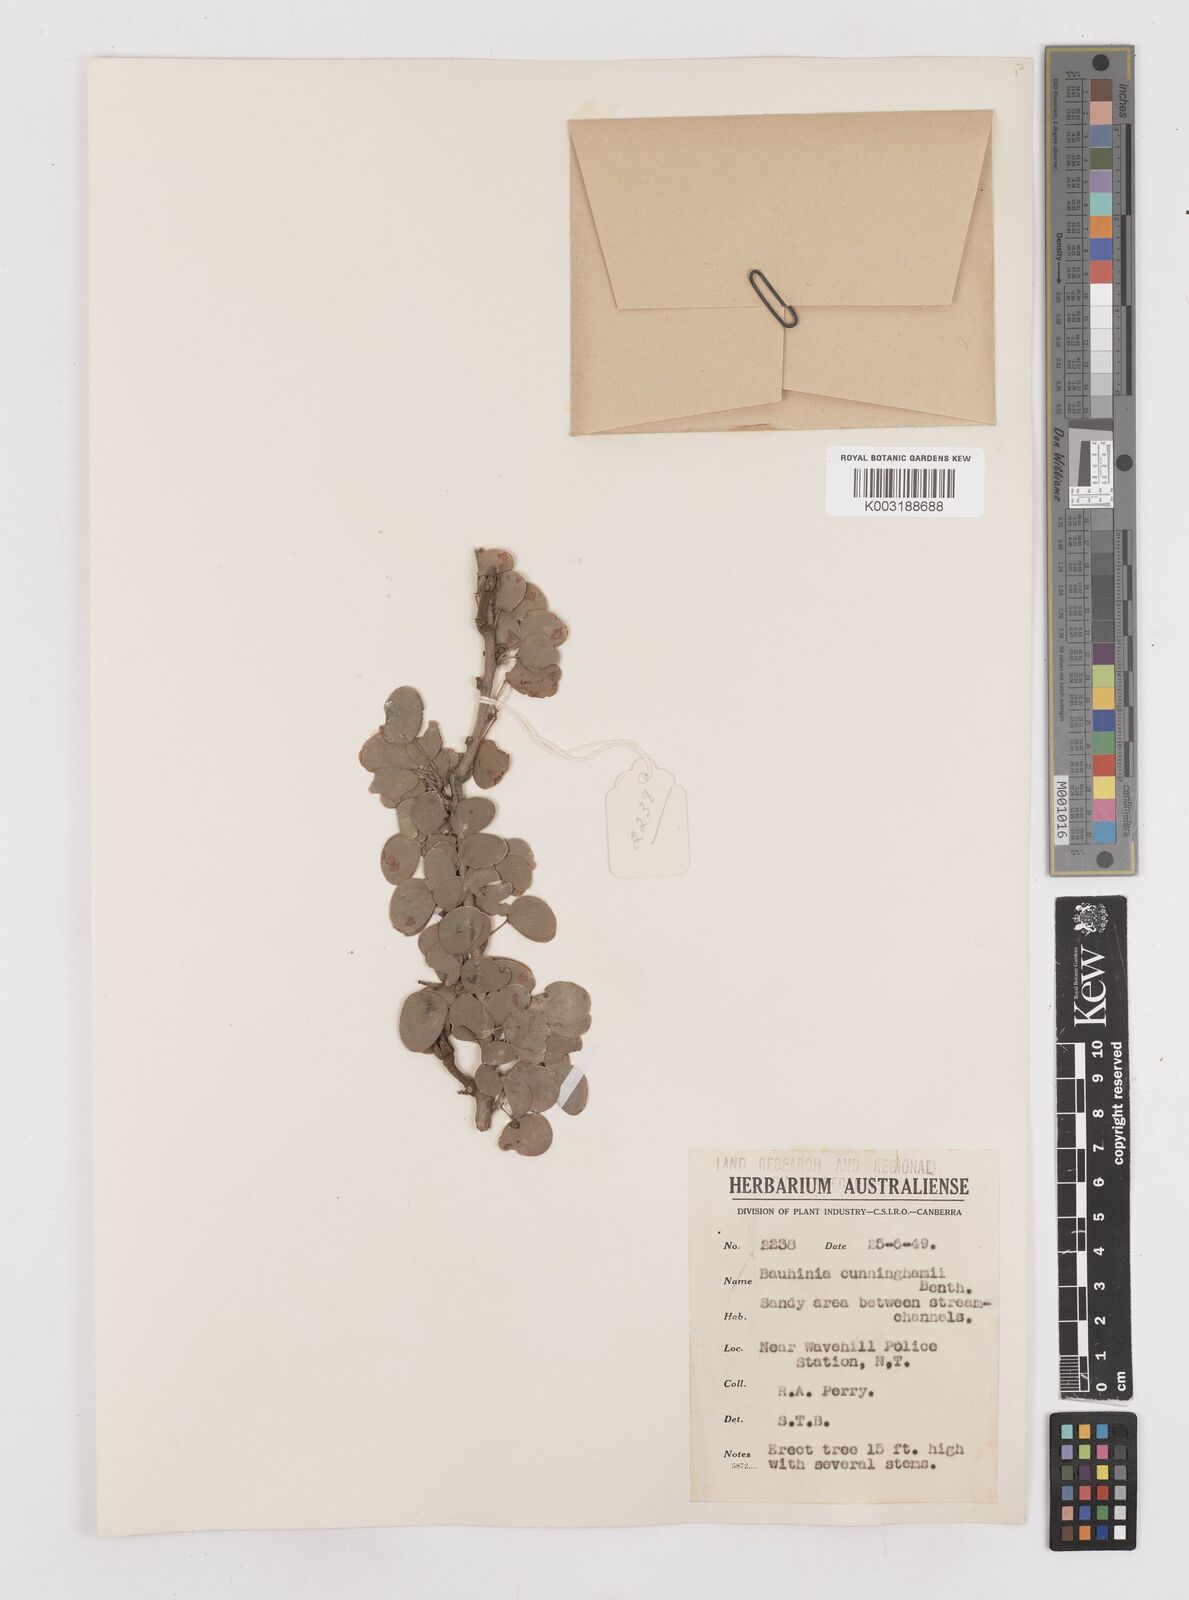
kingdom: Plantae
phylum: Tracheophyta
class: Magnoliopsida
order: Fabales
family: Fabaceae
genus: Lysiphyllum
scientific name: Lysiphyllum cunninghamii
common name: Kimberley bauhinia
